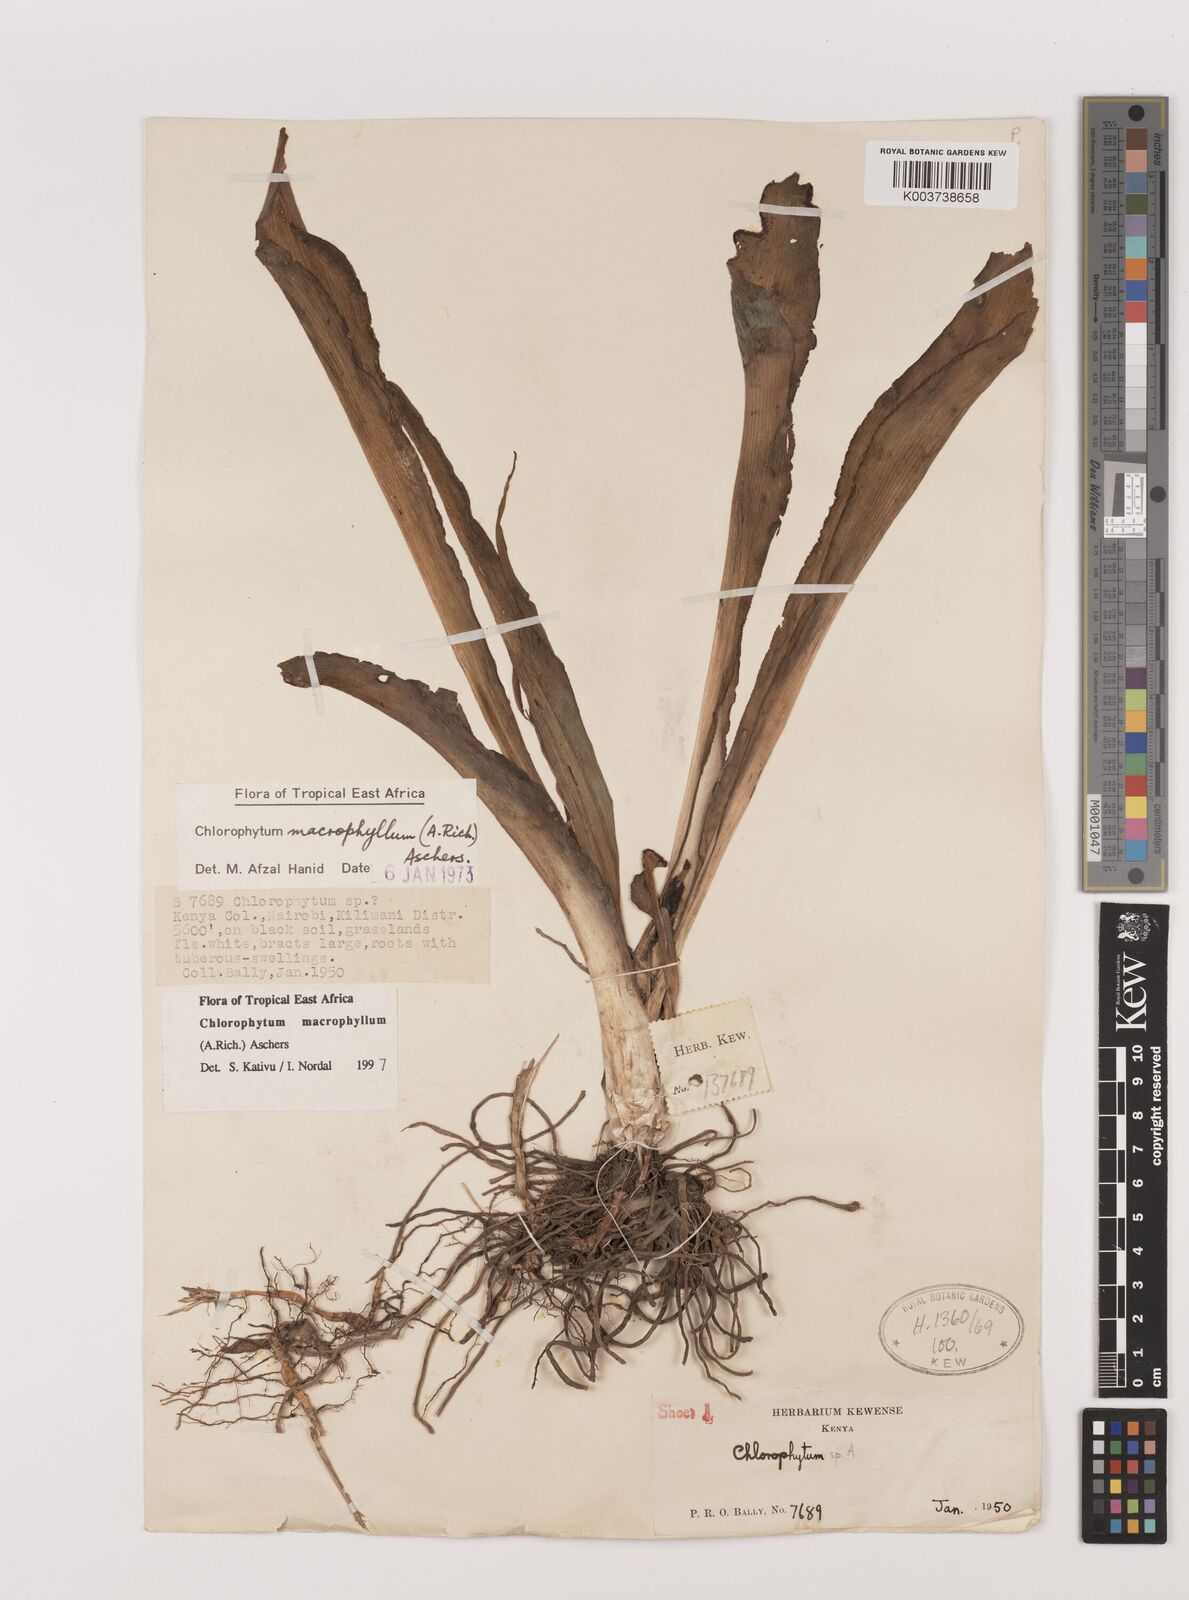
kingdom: Plantae
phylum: Tracheophyta
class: Liliopsida
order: Asparagales
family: Asparagaceae
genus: Chlorophytum
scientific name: Chlorophytum macrophyllum
